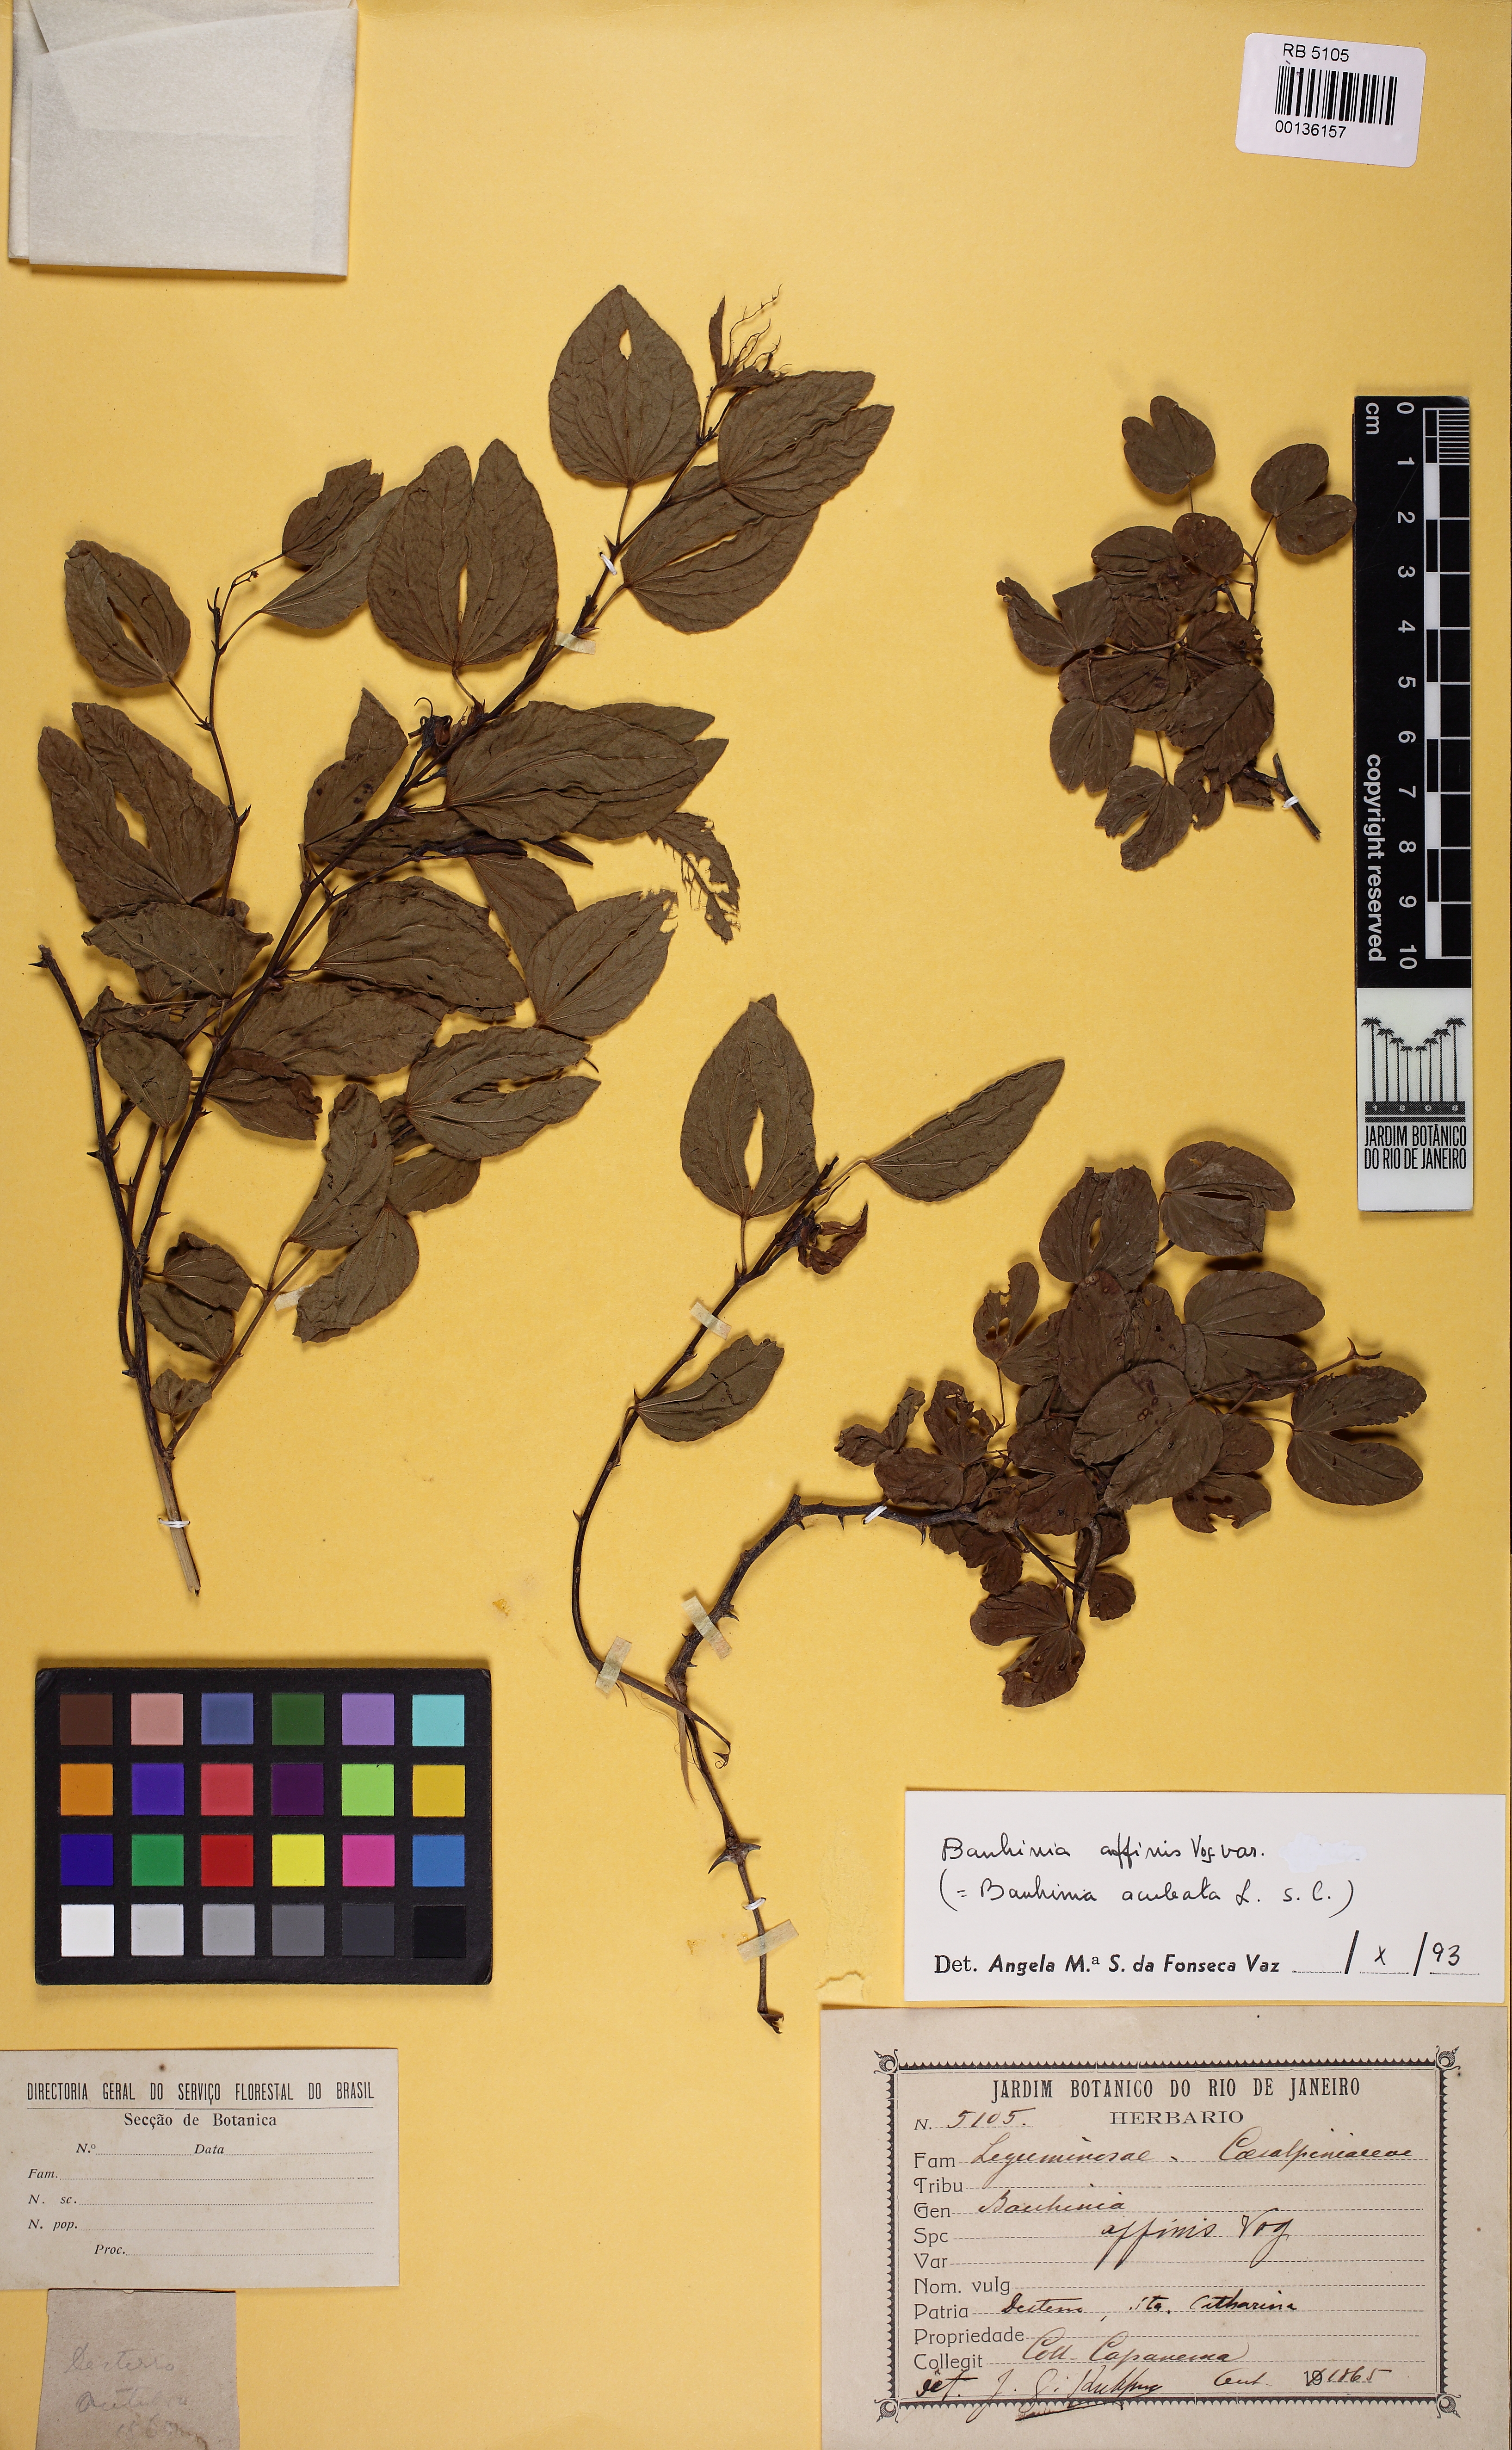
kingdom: Plantae
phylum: Tracheophyta
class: Magnoliopsida
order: Fabales
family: Fabaceae
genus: Bauhinia
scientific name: Bauhinia aculeata
